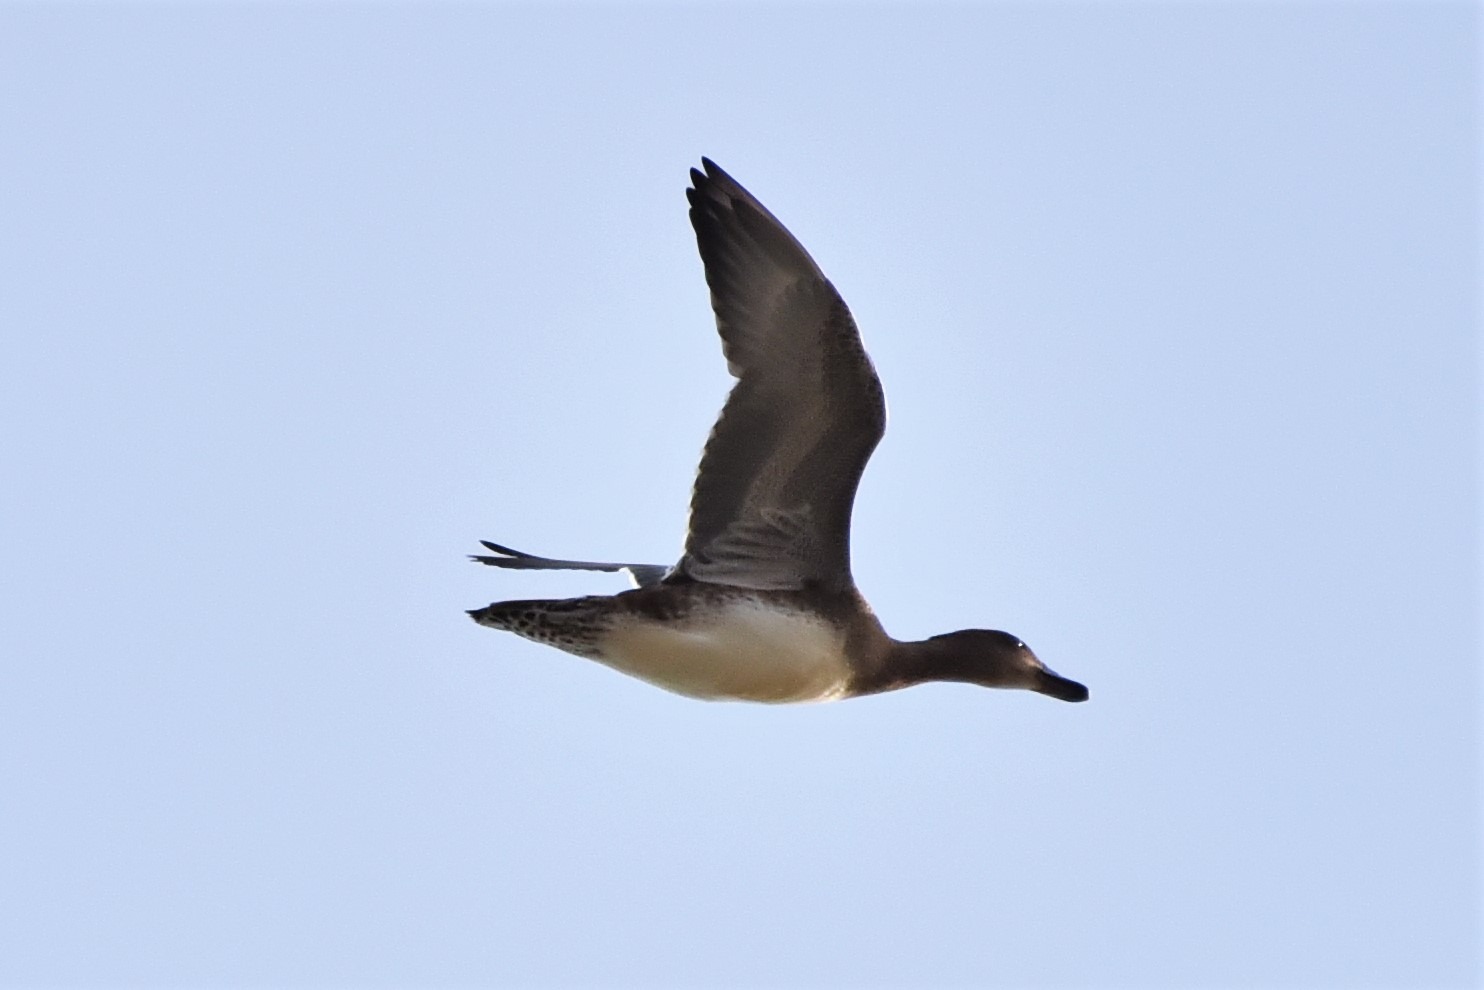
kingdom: Animalia
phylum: Chordata
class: Aves
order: Anseriformes
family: Anatidae
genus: Mareca
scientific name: Mareca penelope
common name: Pibeand
